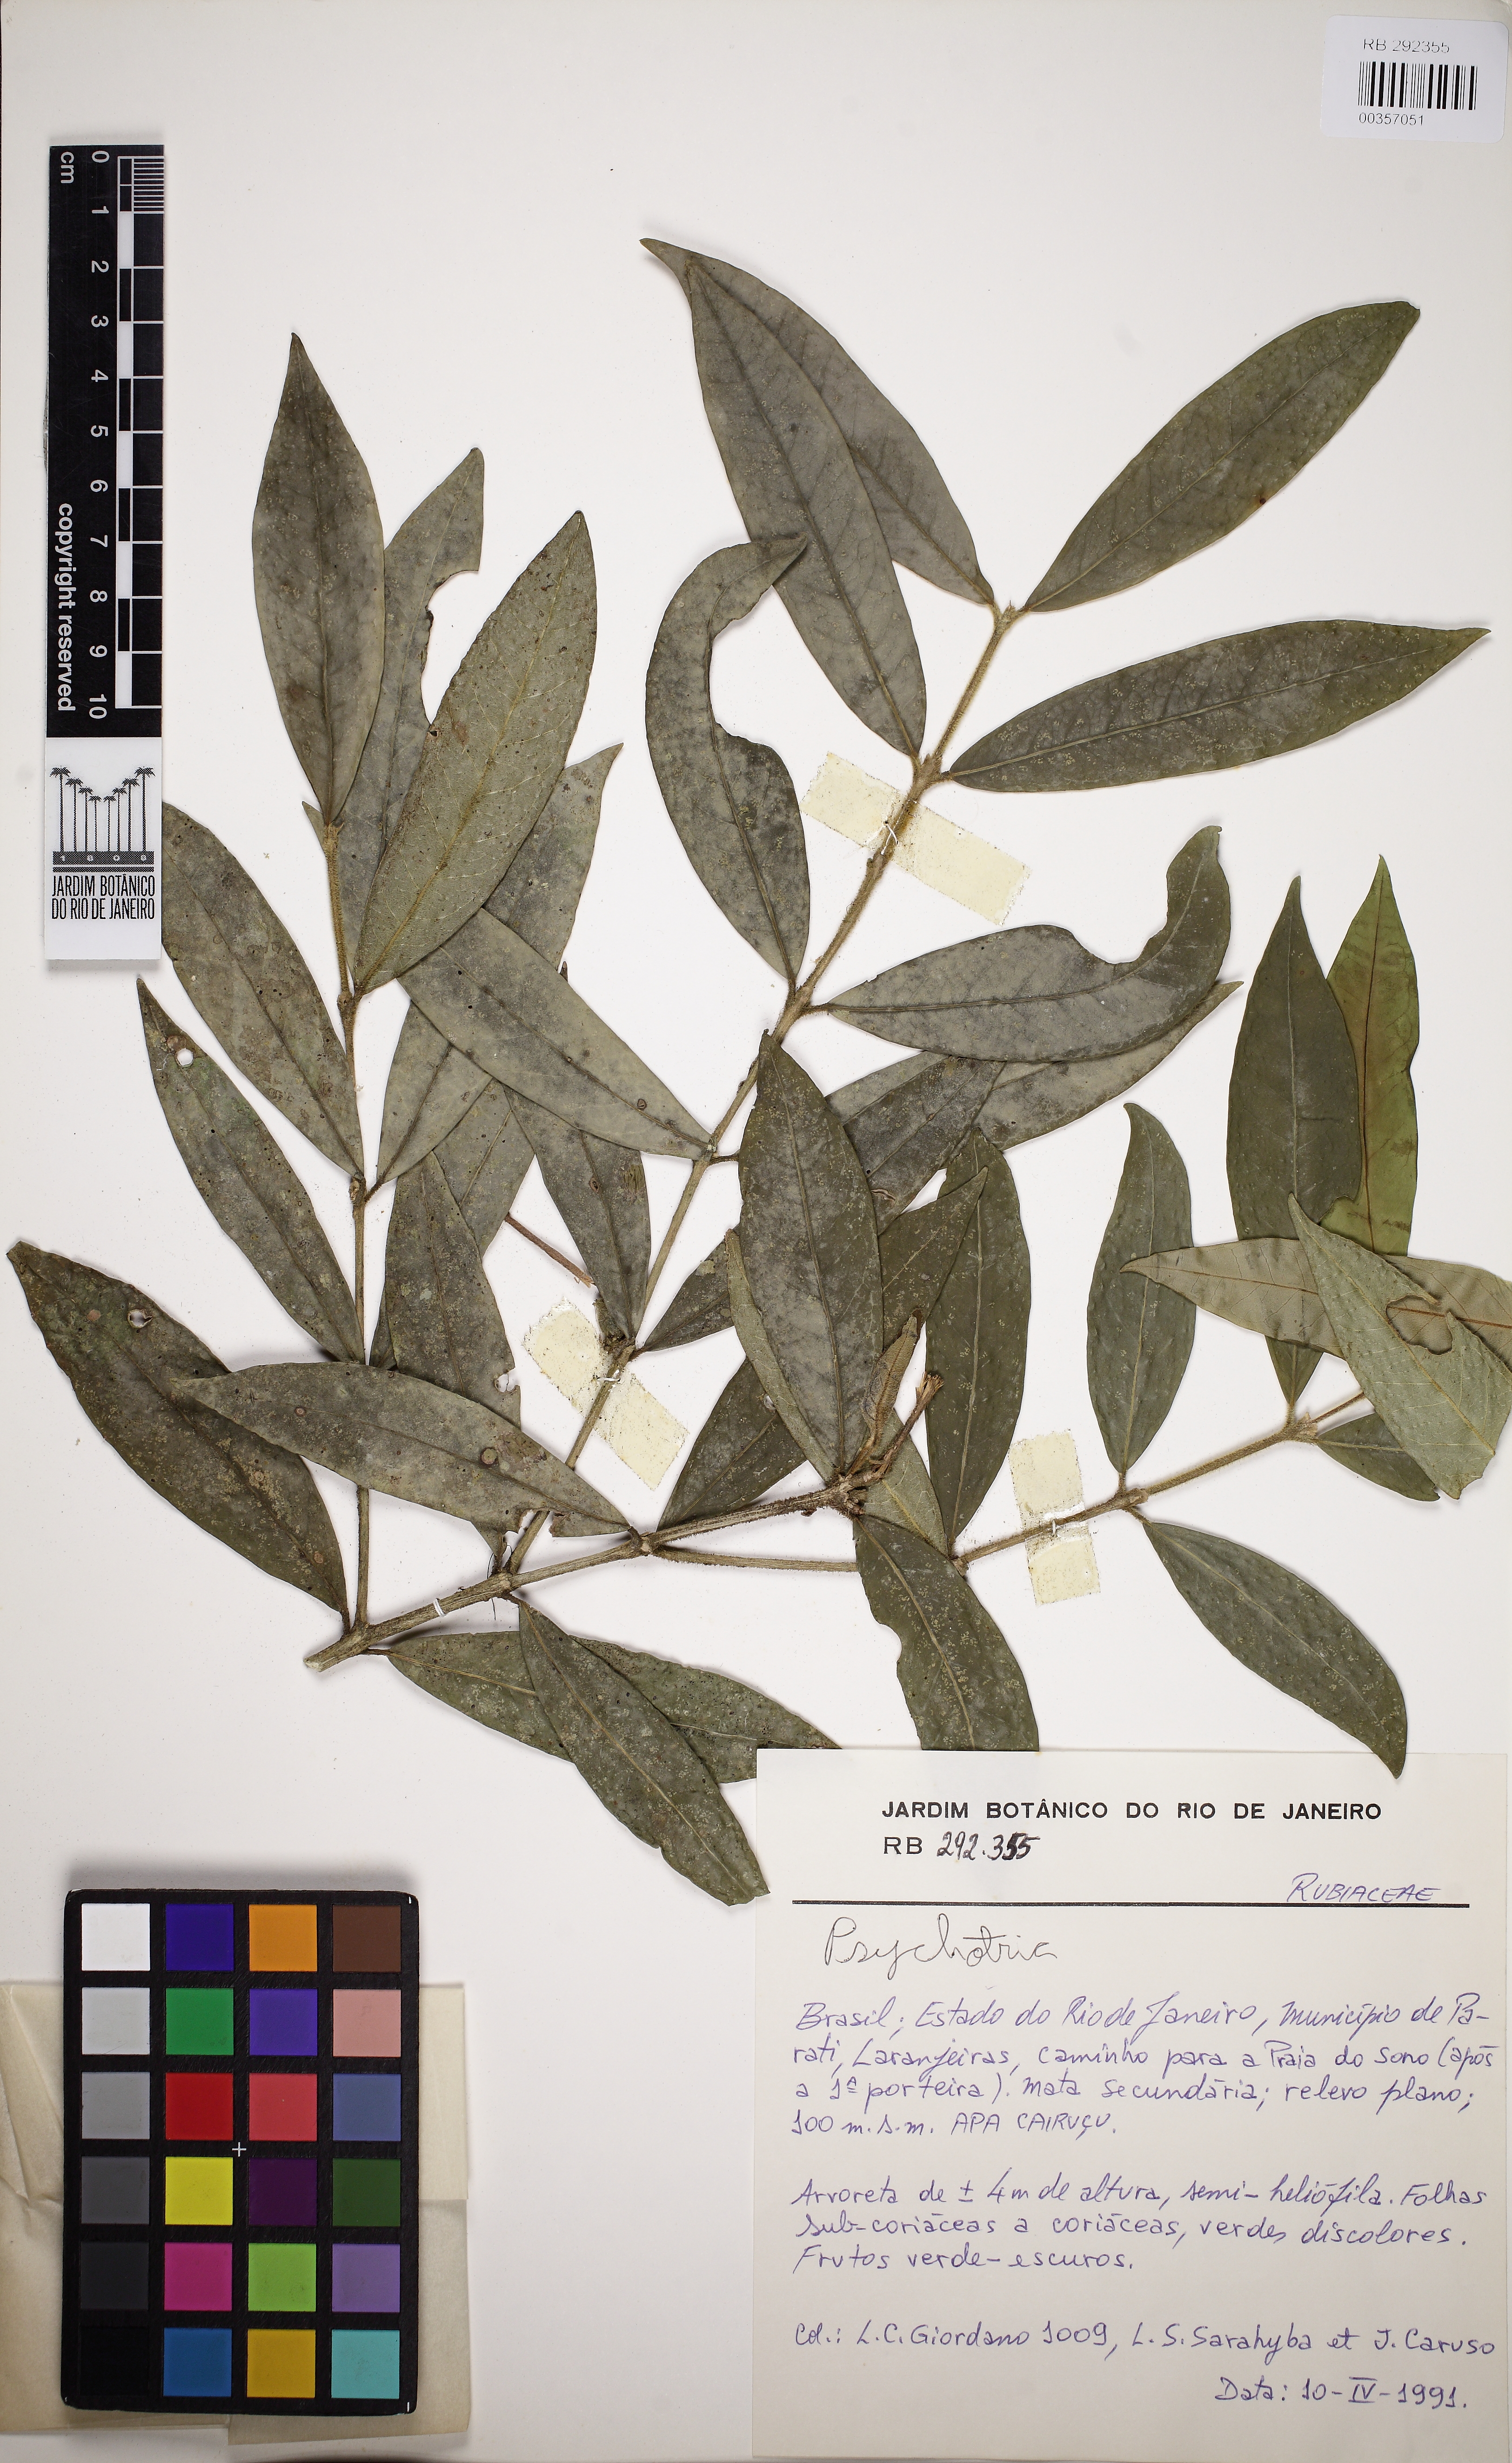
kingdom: Plantae
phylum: Tracheophyta
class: Magnoliopsida
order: Gentianales
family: Rubiaceae
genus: Psychotria
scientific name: Psychotria
